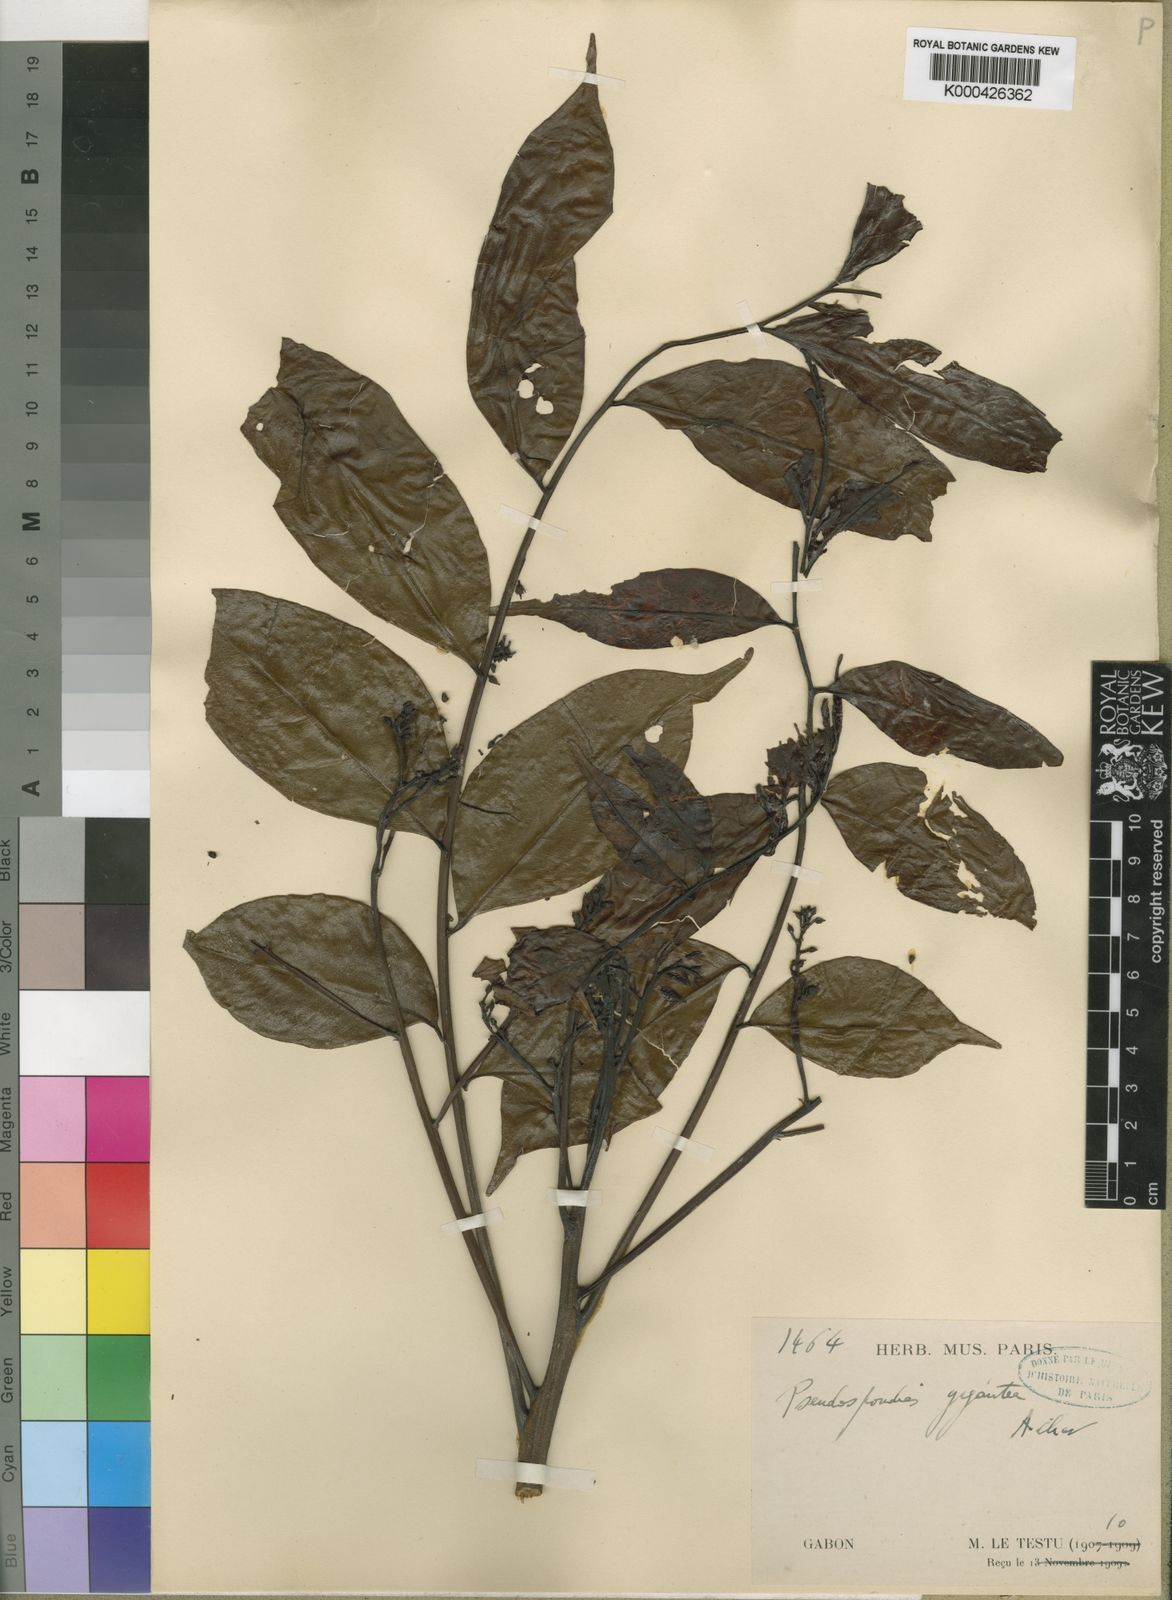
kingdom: Plantae
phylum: Tracheophyta
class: Magnoliopsida
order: Sapindales
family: Sapindaceae
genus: Ganophyllum
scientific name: Ganophyllum giganteum
